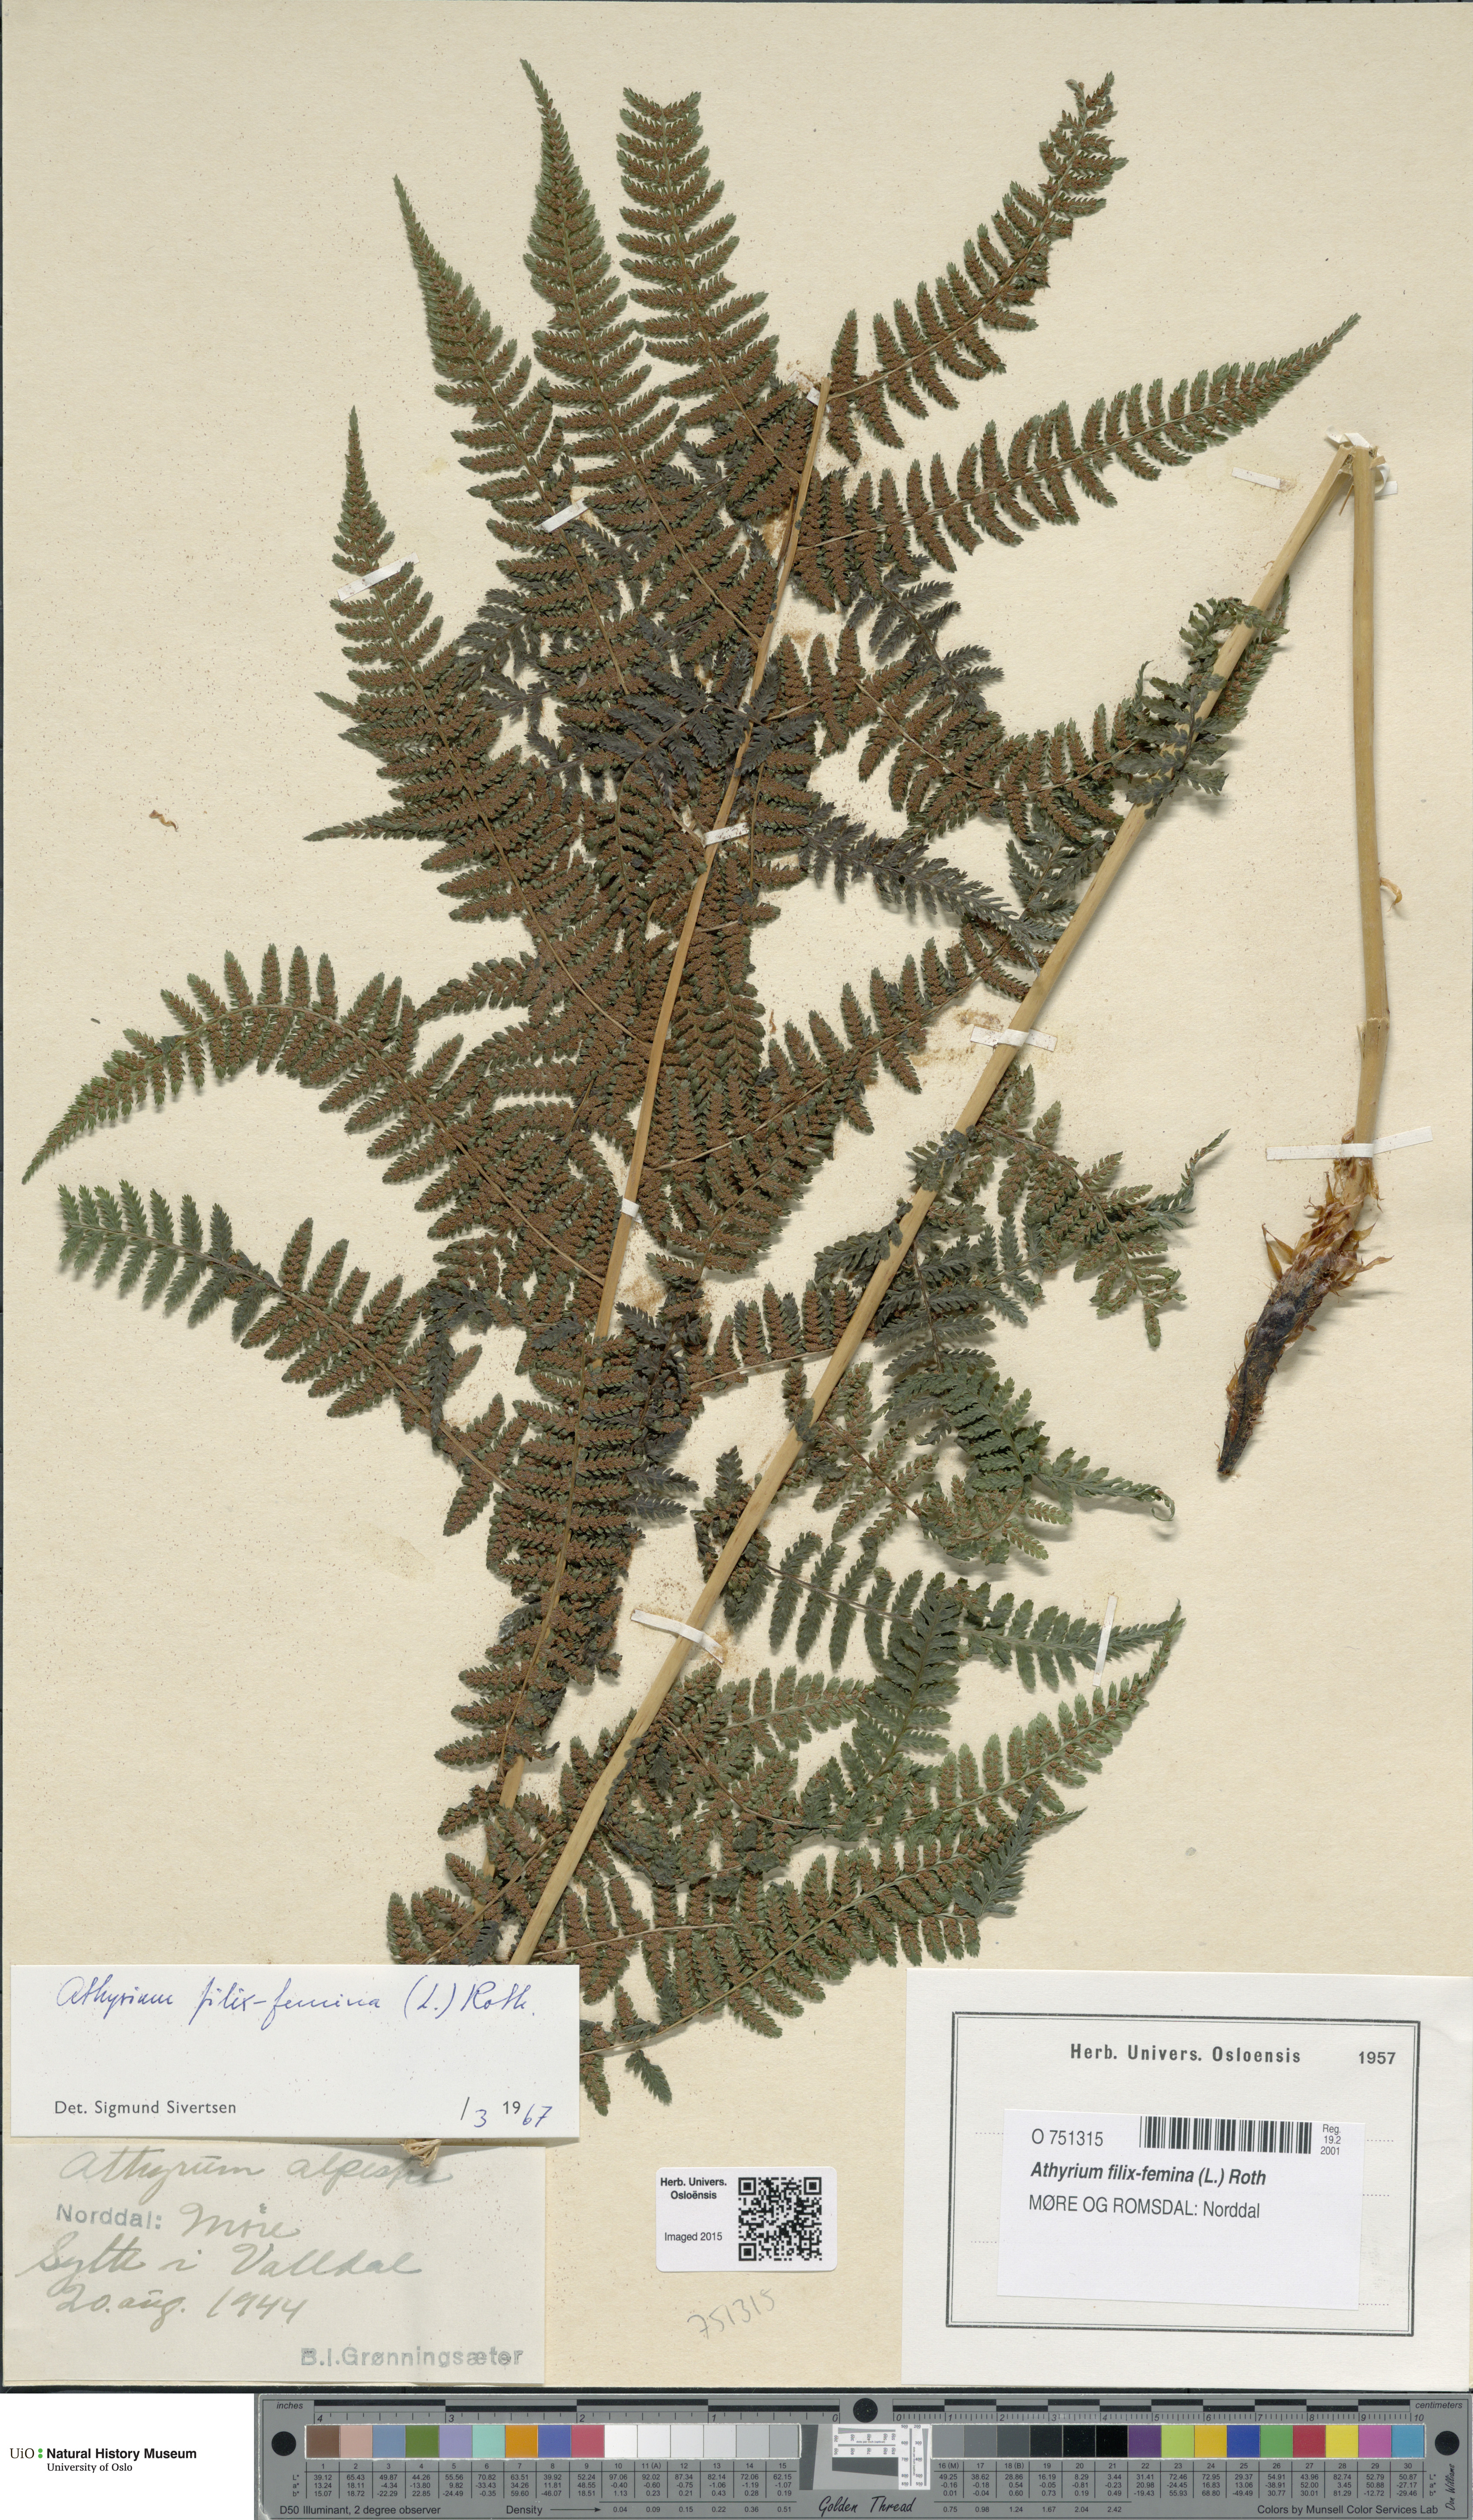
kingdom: Plantae
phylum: Tracheophyta
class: Polypodiopsida
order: Polypodiales
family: Athyriaceae
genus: Athyrium
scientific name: Athyrium filix-femina
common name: Lady fern
